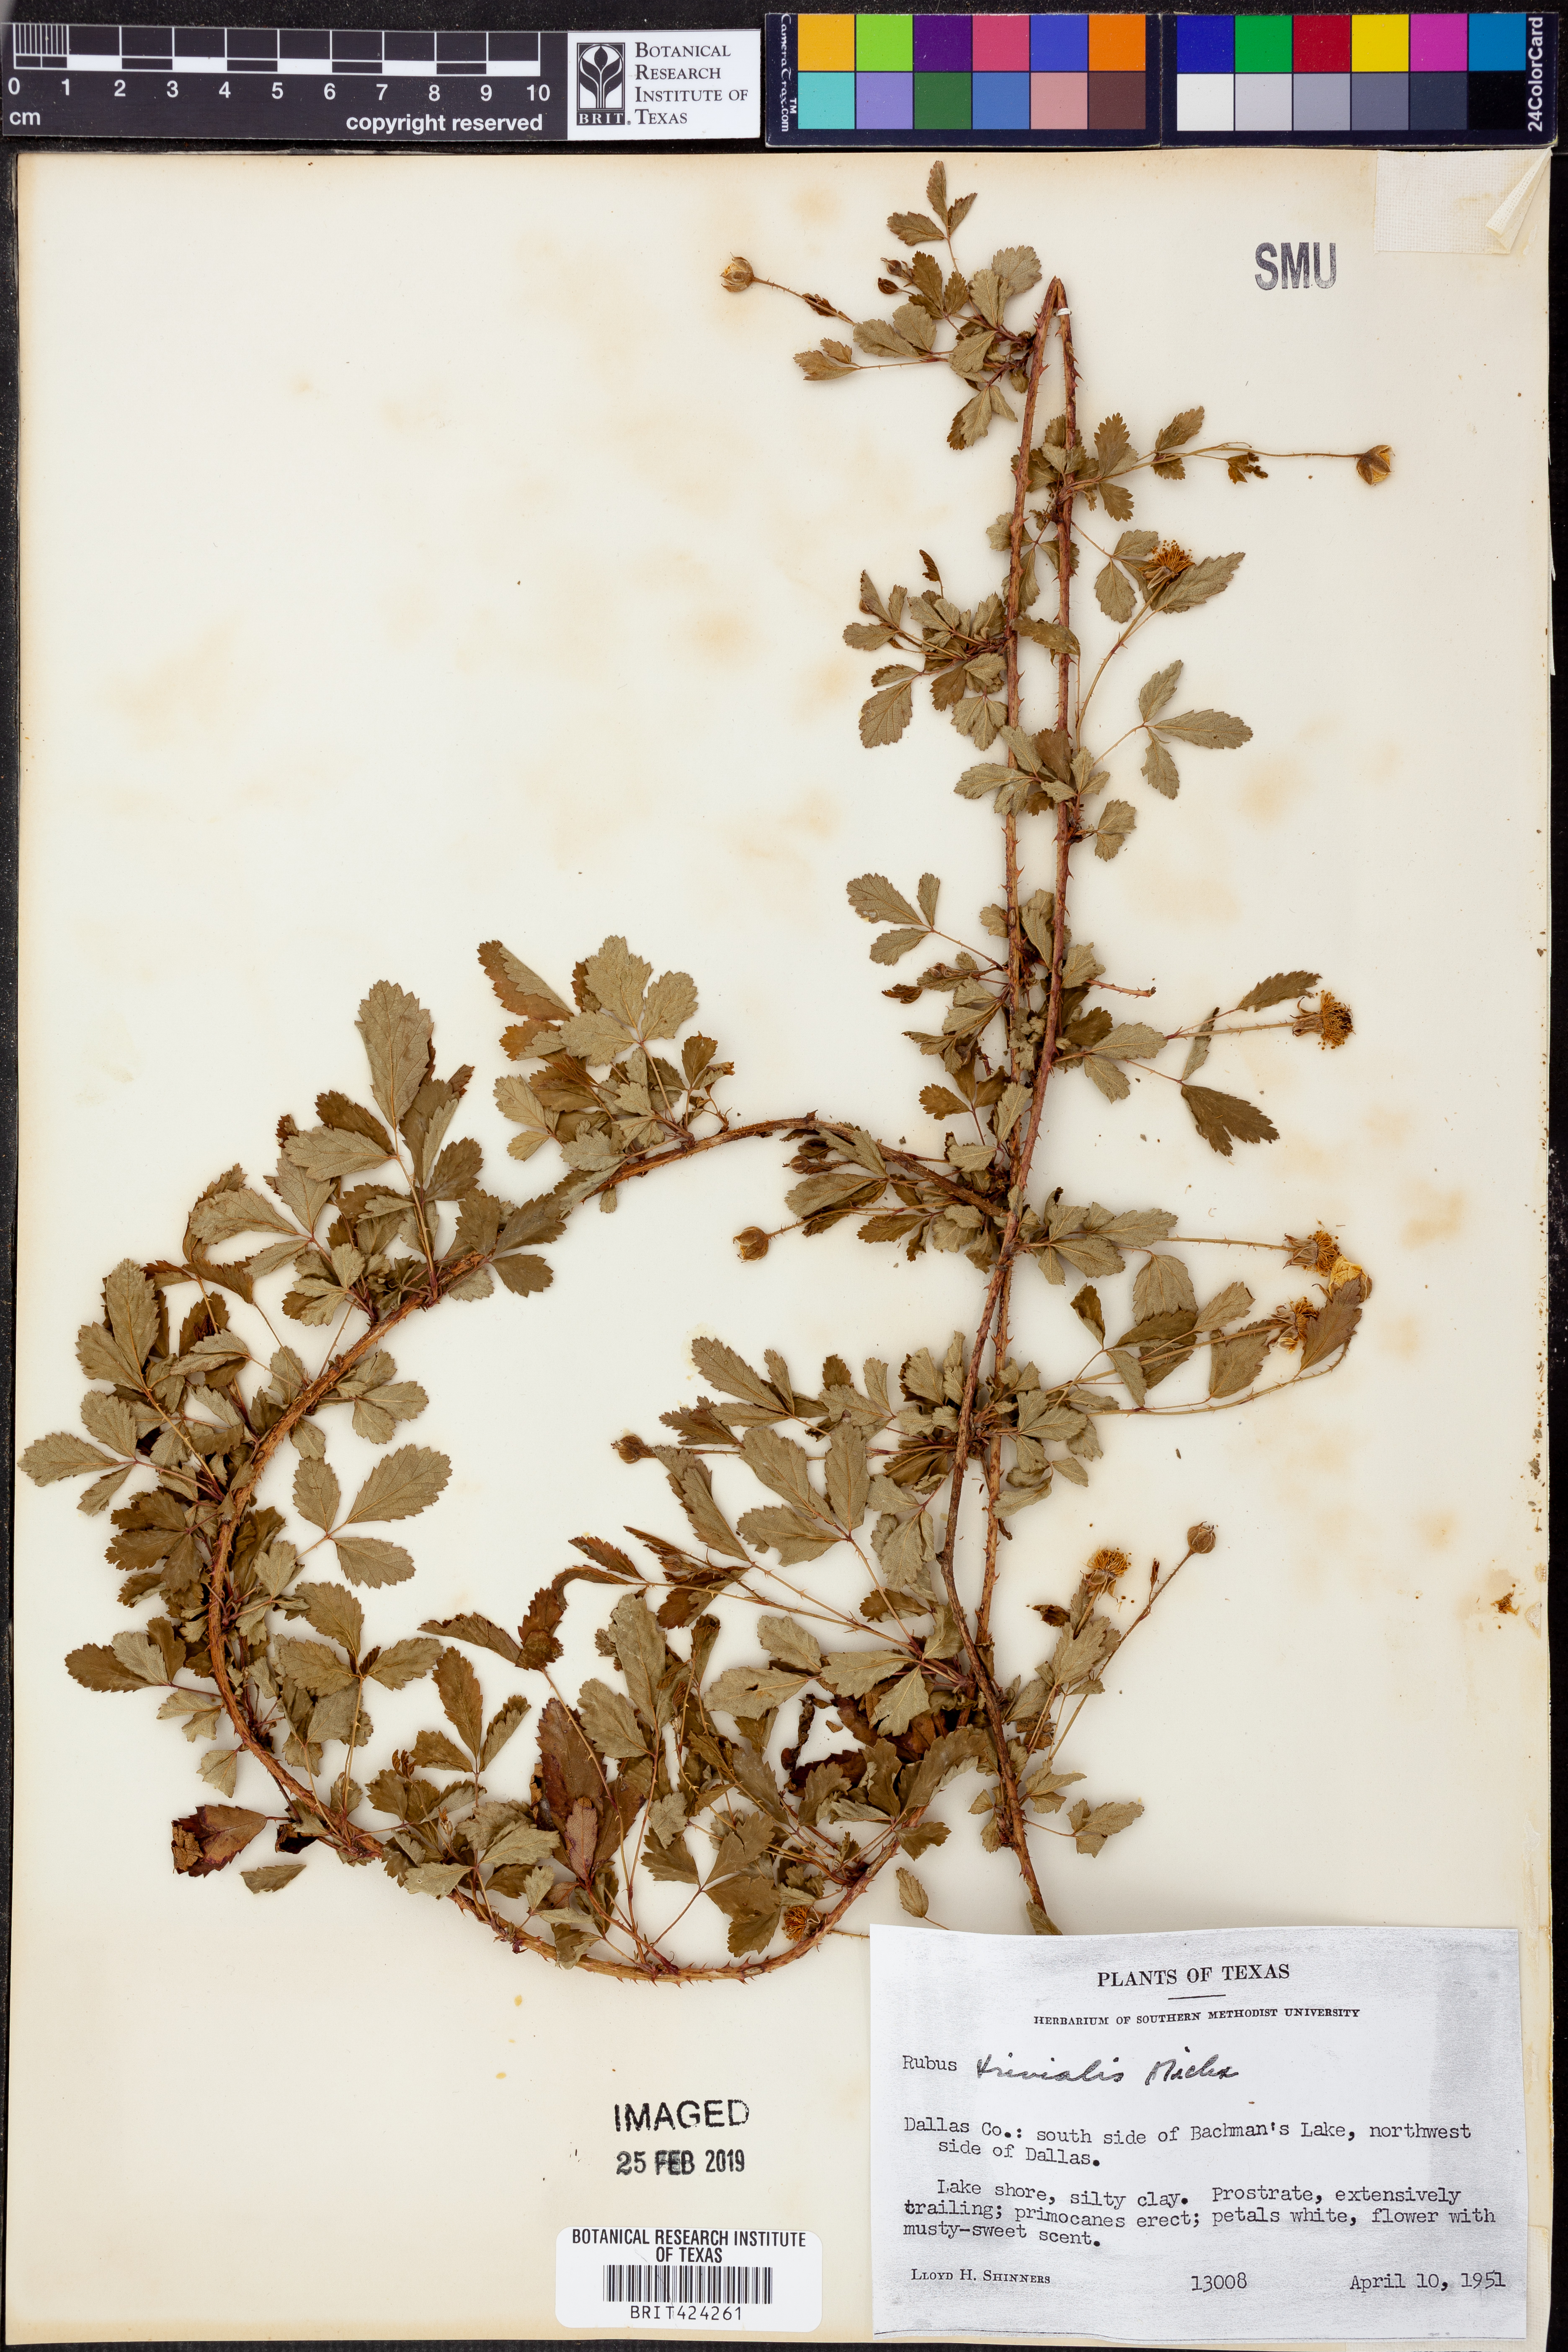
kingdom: Plantae
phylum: Tracheophyta
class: Magnoliopsida
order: Rosales
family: Rosaceae
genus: Rubus
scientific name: Rubus trivialis
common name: Southern dewberry
